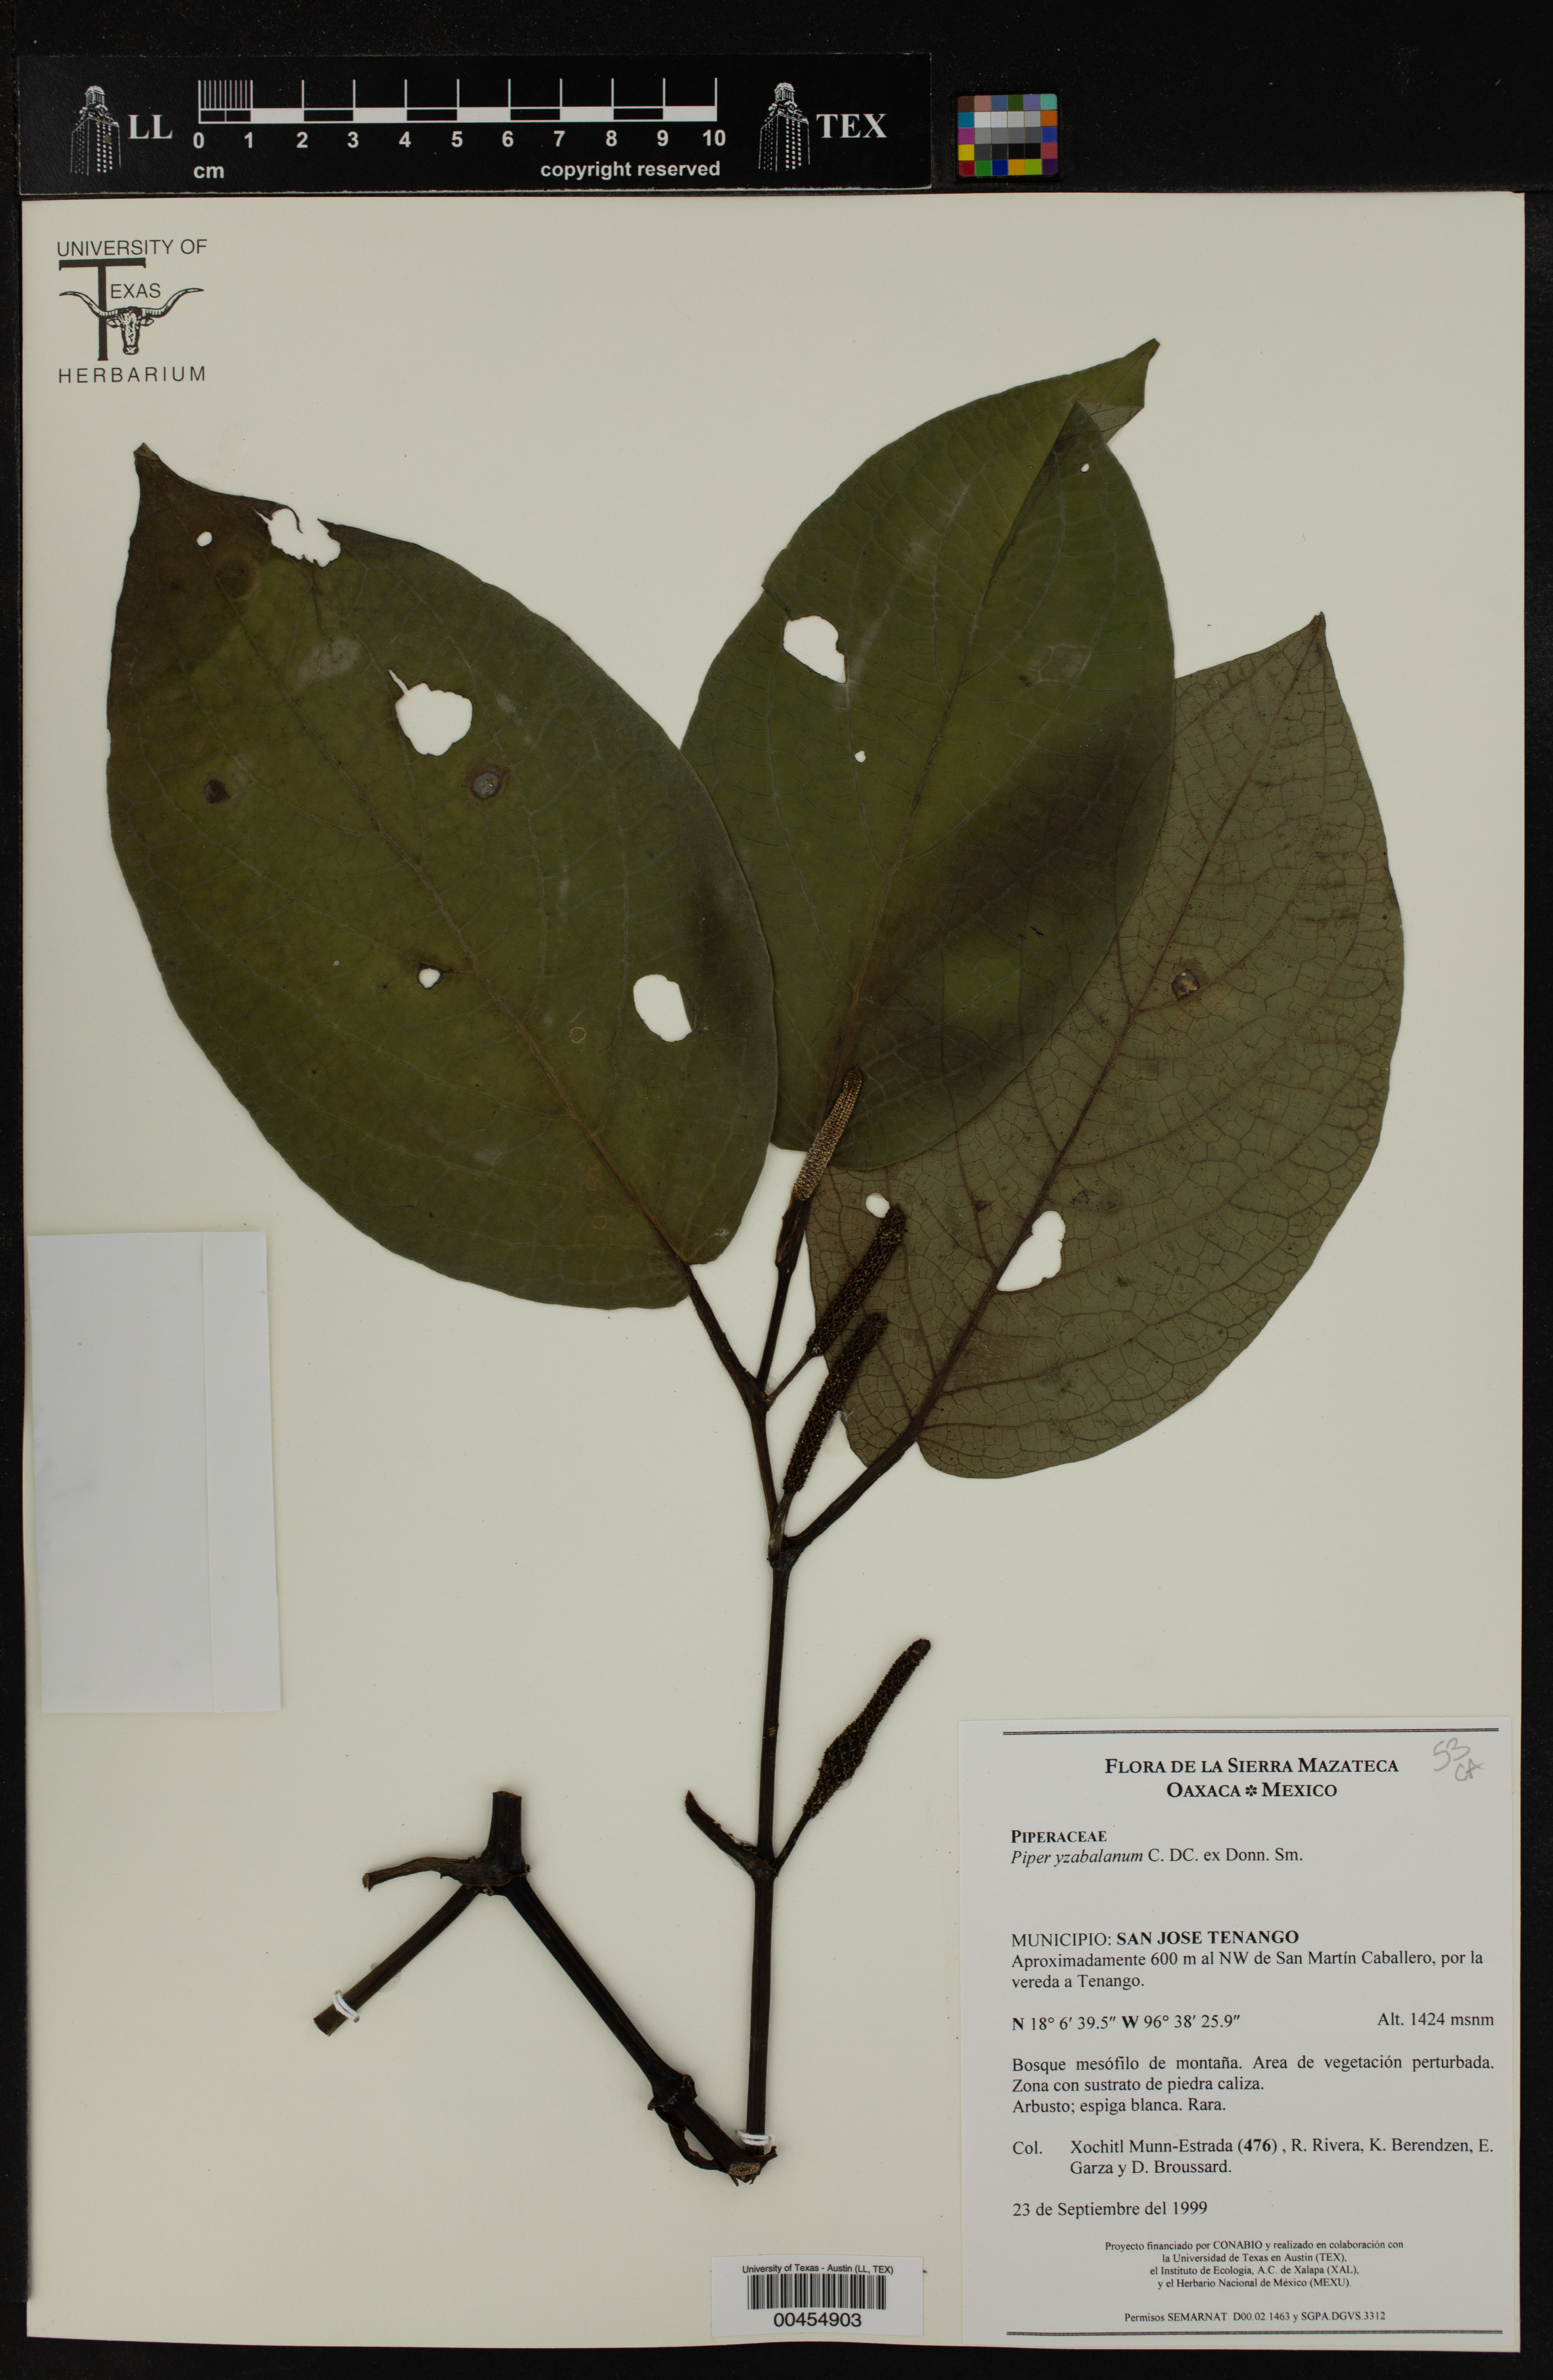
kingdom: Plantae
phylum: Tracheophyta
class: Magnoliopsida
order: Piperales
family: Piperaceae
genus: Piper
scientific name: Piper yzabalanum
